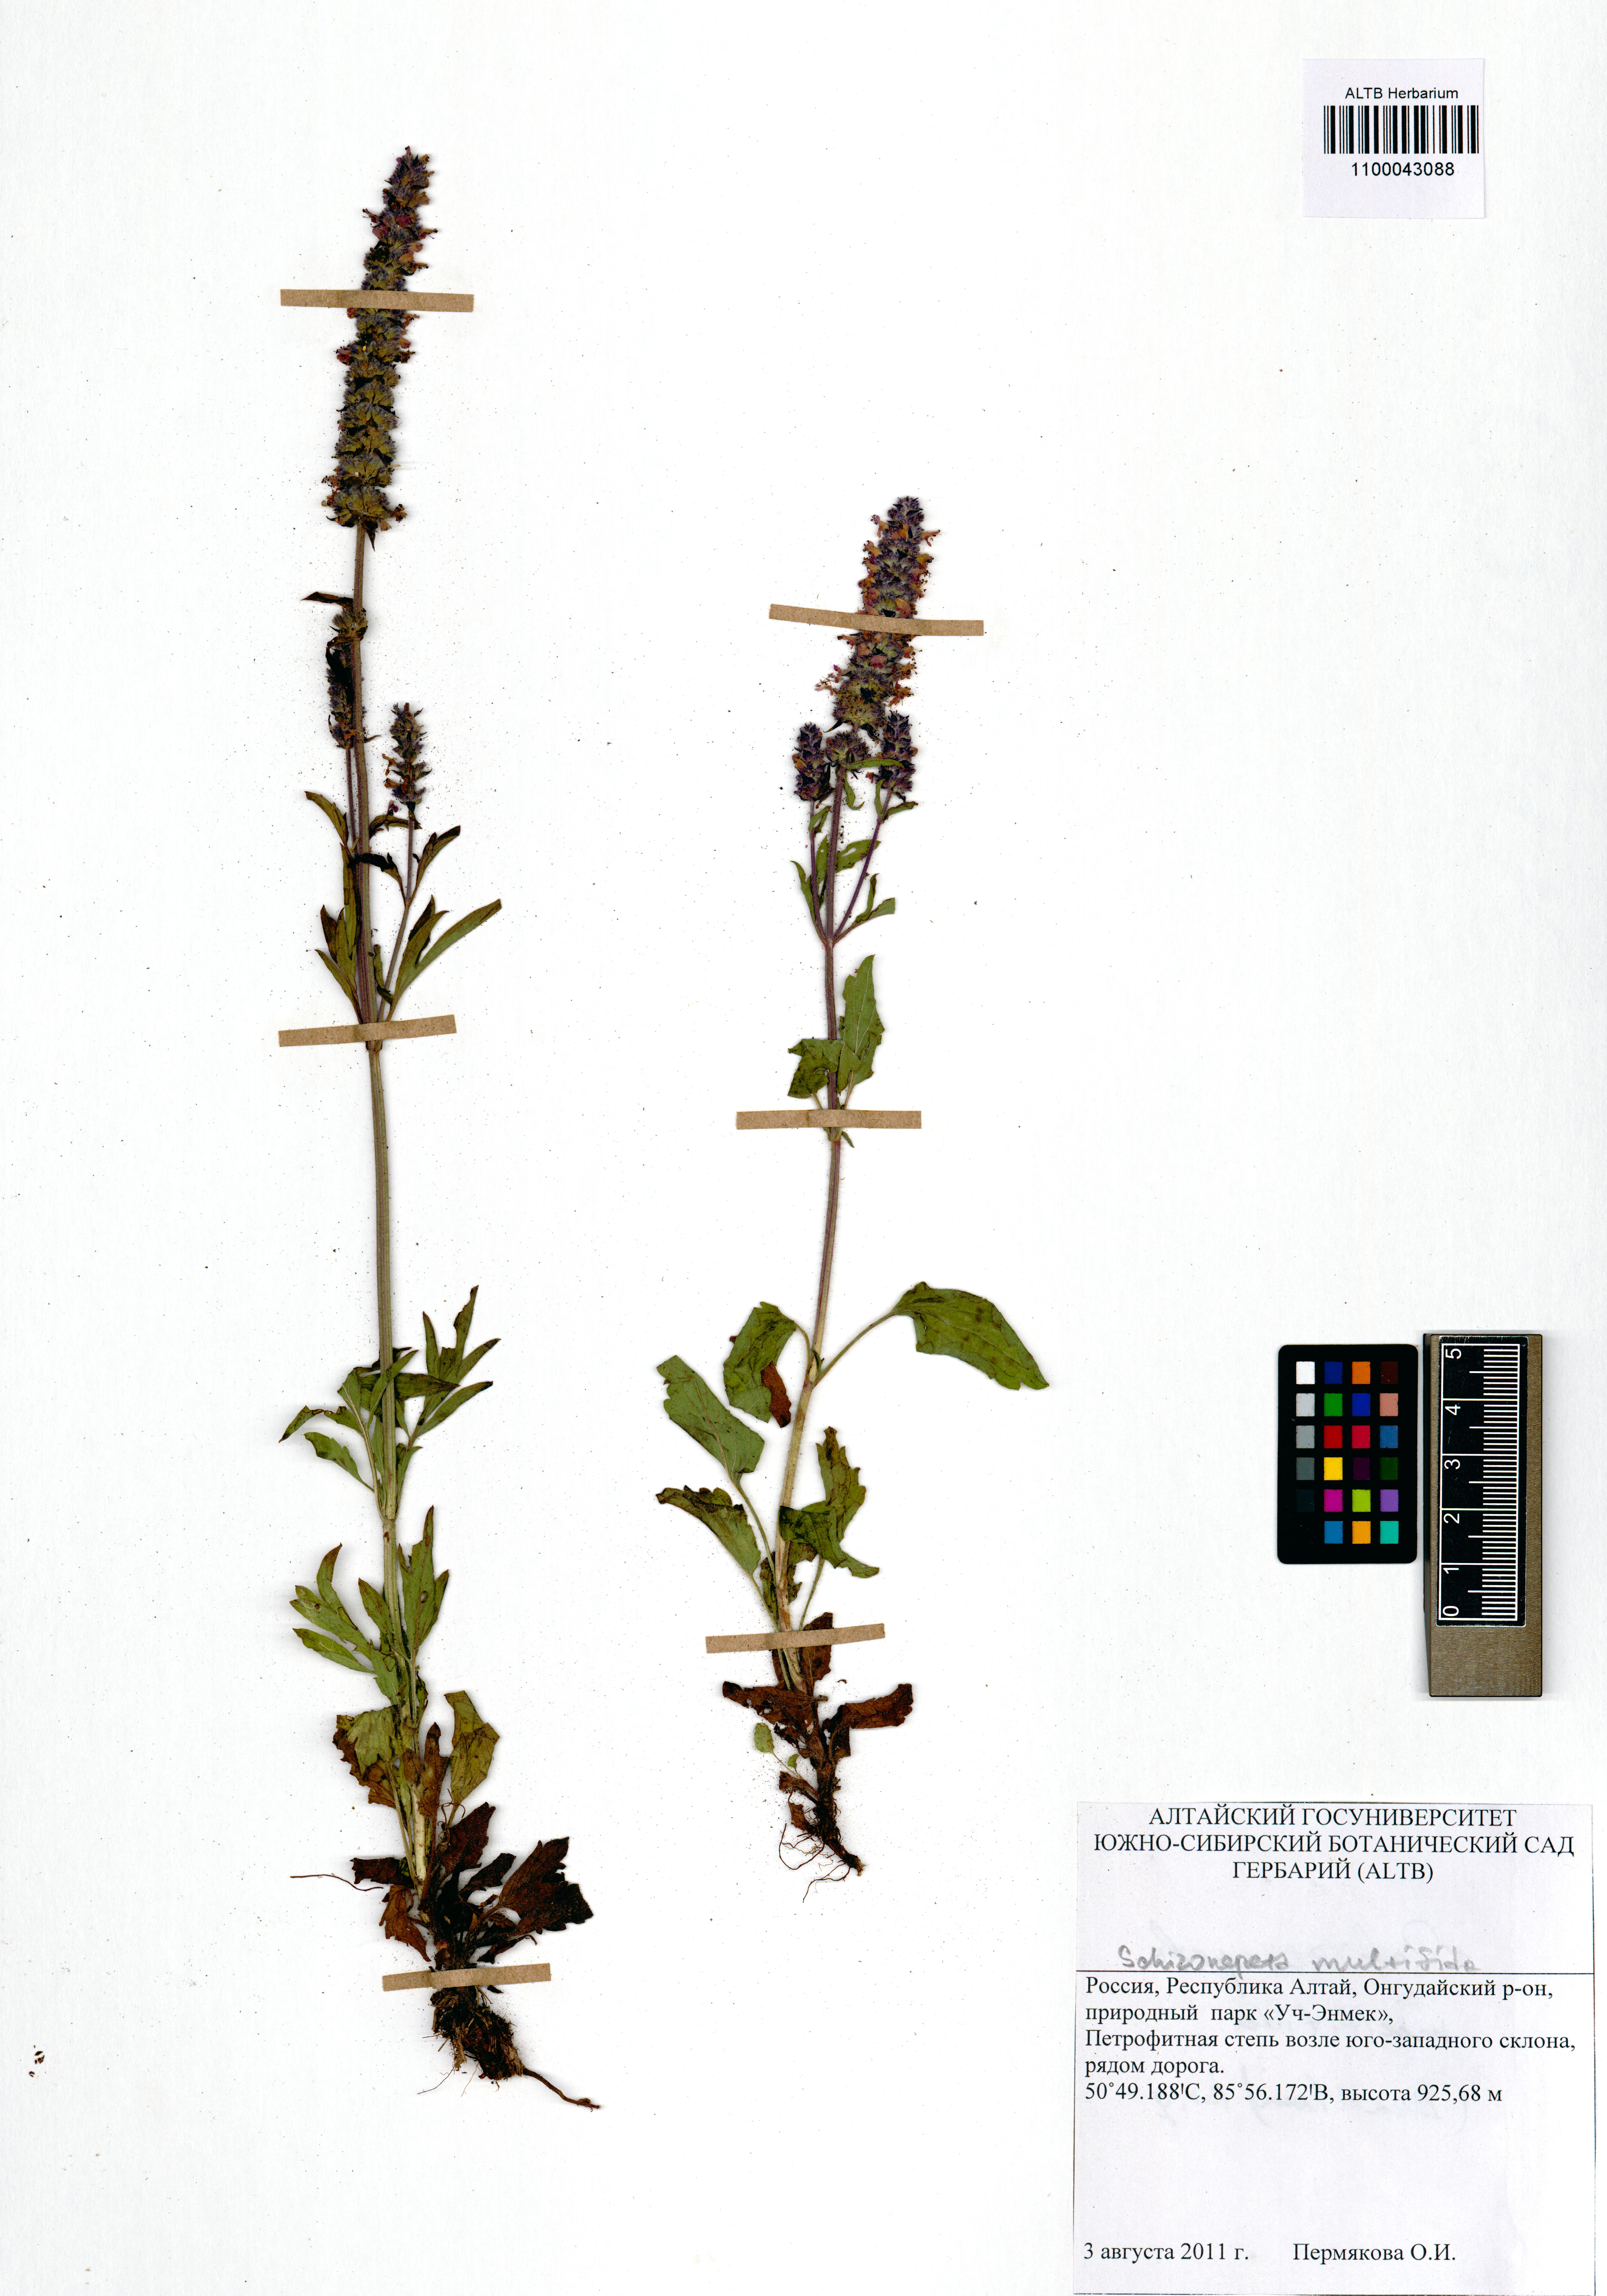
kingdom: Plantae
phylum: Tracheophyta
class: Magnoliopsida
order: Lamiales
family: Lamiaceae
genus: Nepeta
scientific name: Nepeta multifida
